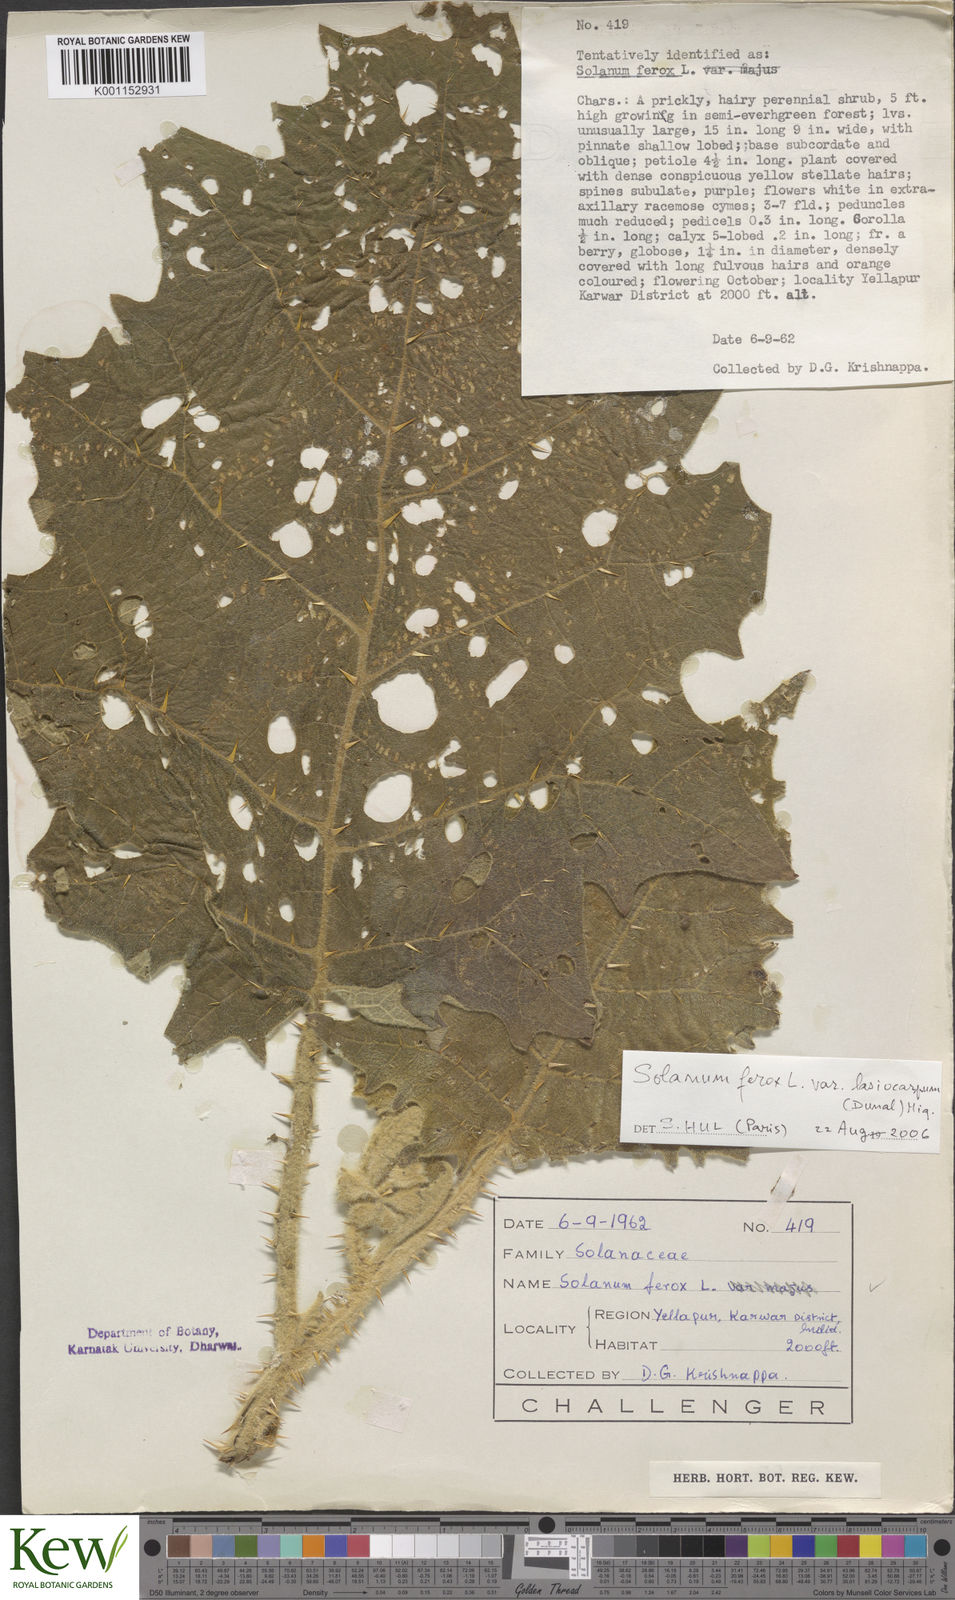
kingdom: Plantae
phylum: Tracheophyta
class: Magnoliopsida
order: Solanales
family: Solanaceae
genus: Solanum
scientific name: Solanum
